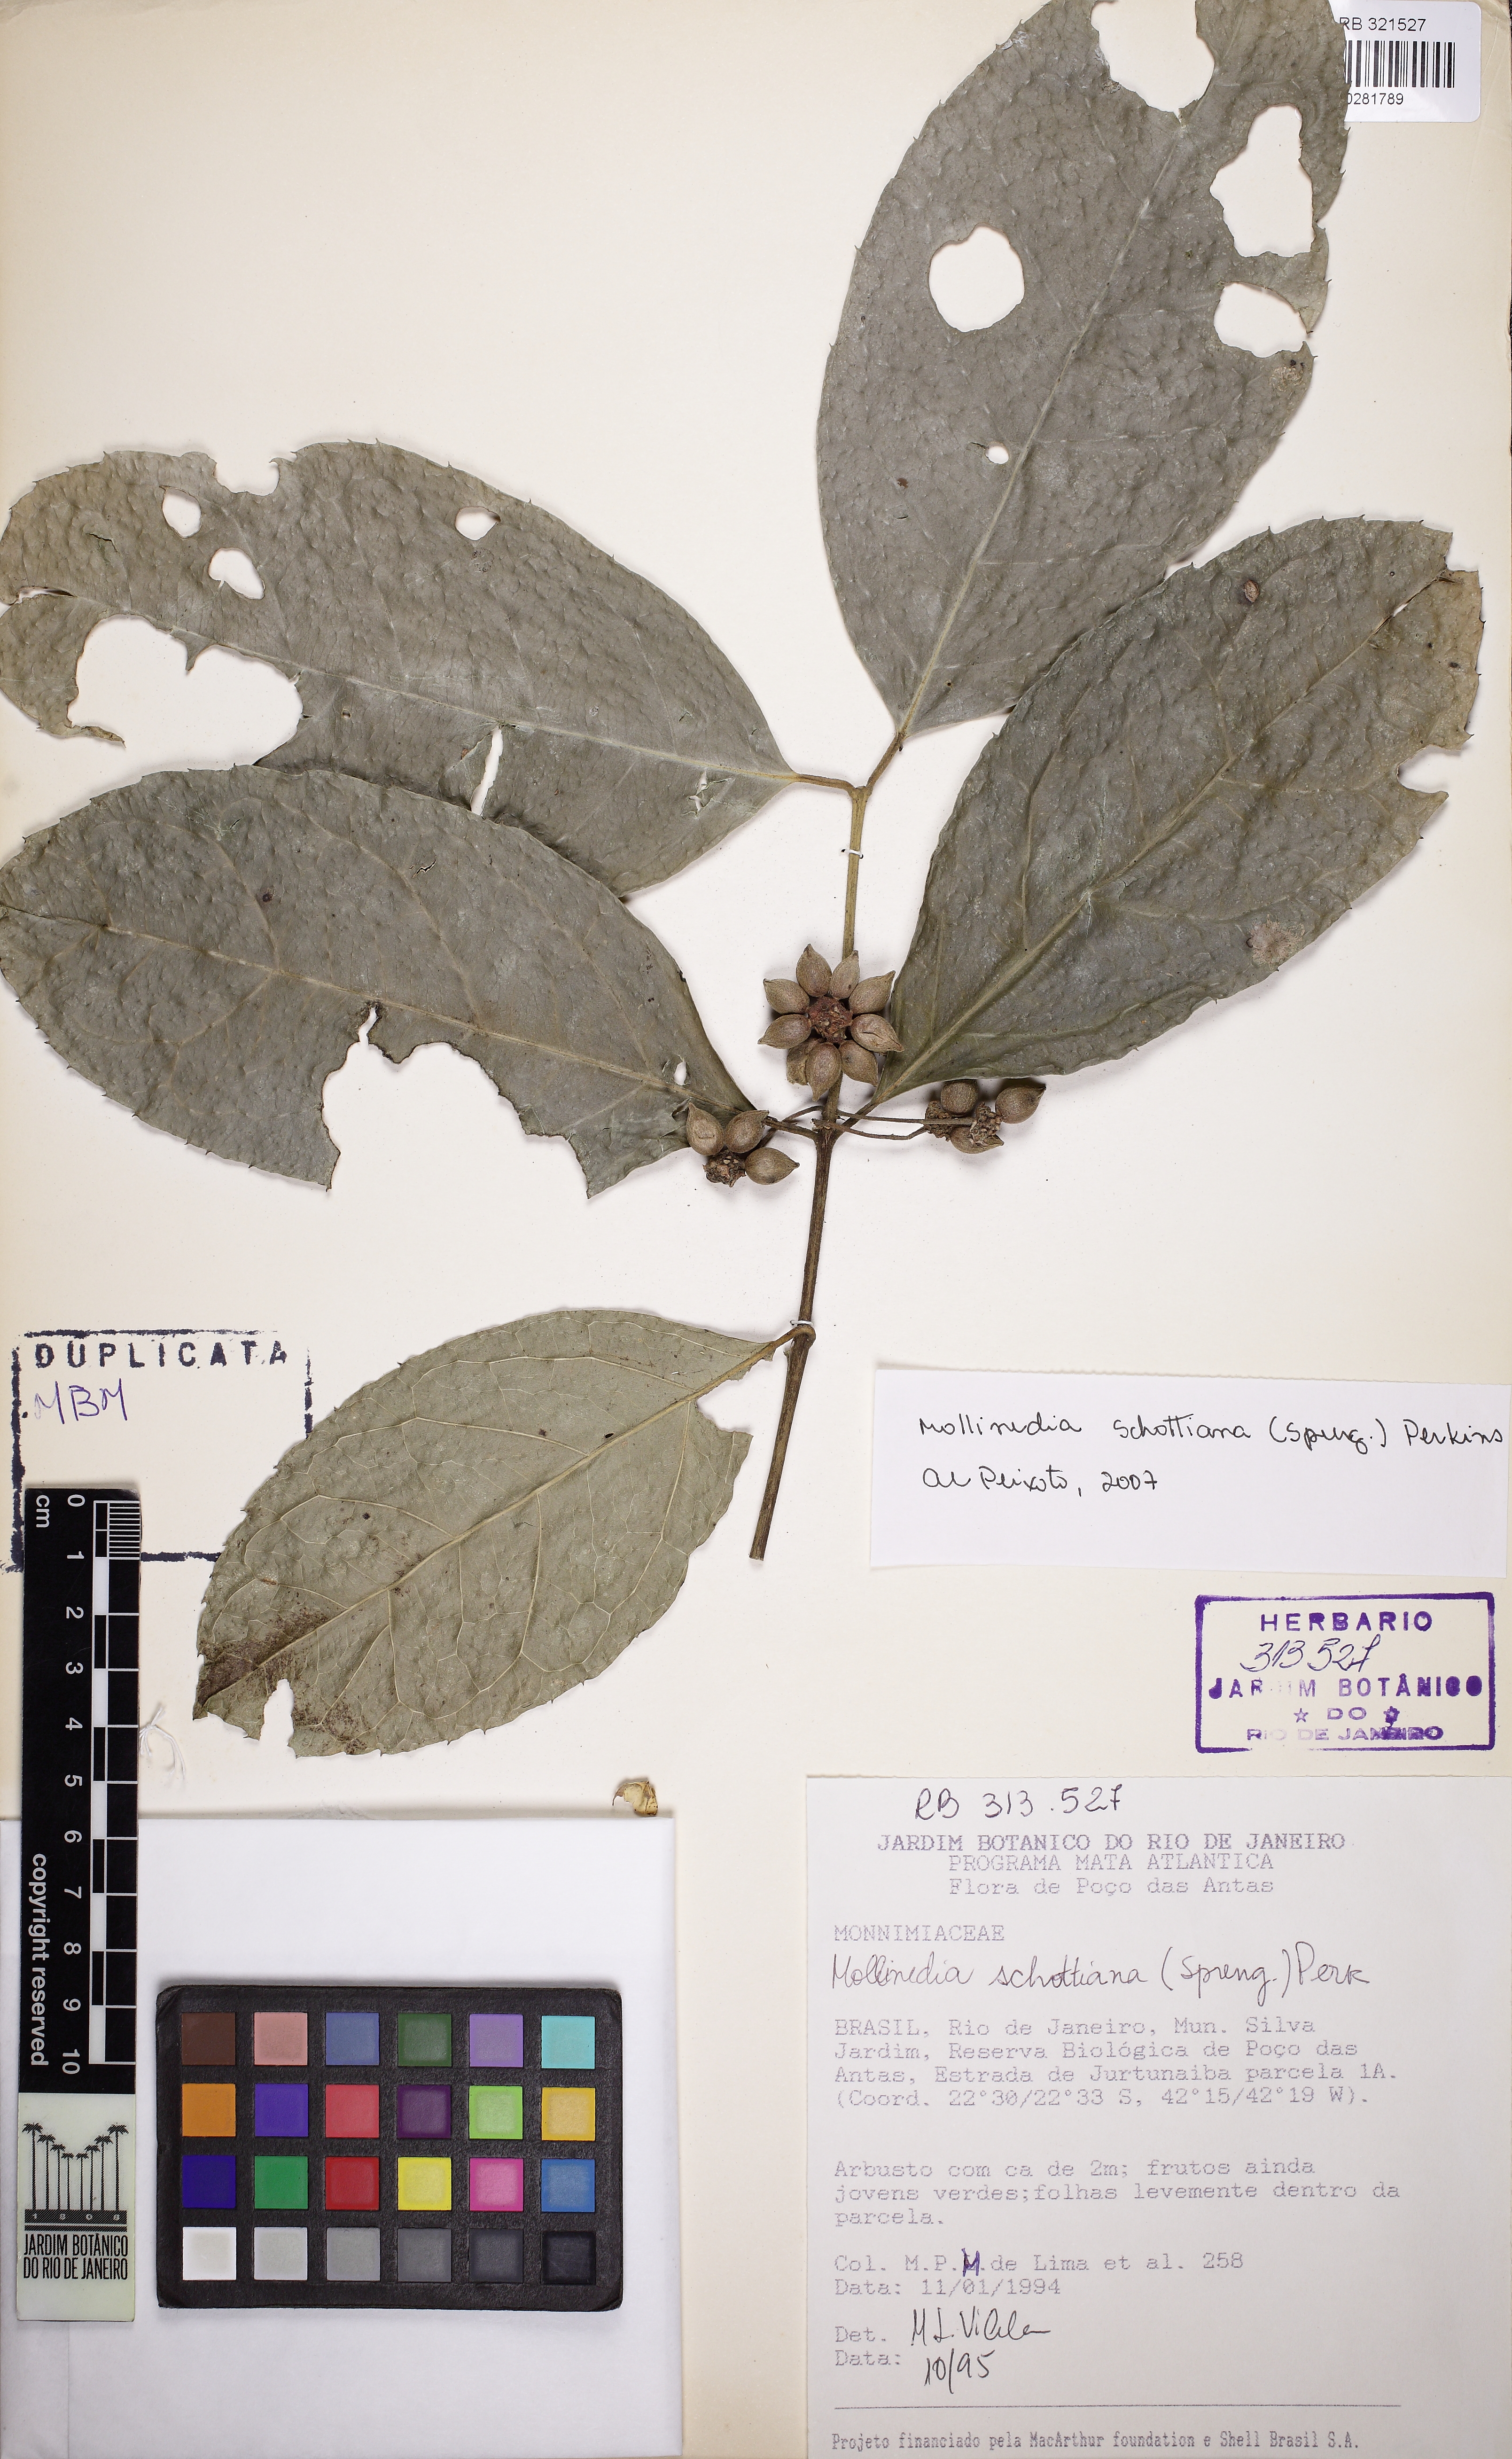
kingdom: Plantae
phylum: Tracheophyta
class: Liliopsida
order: Poales
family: Bromeliaceae
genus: Vriesea
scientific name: Vriesea triligulata
